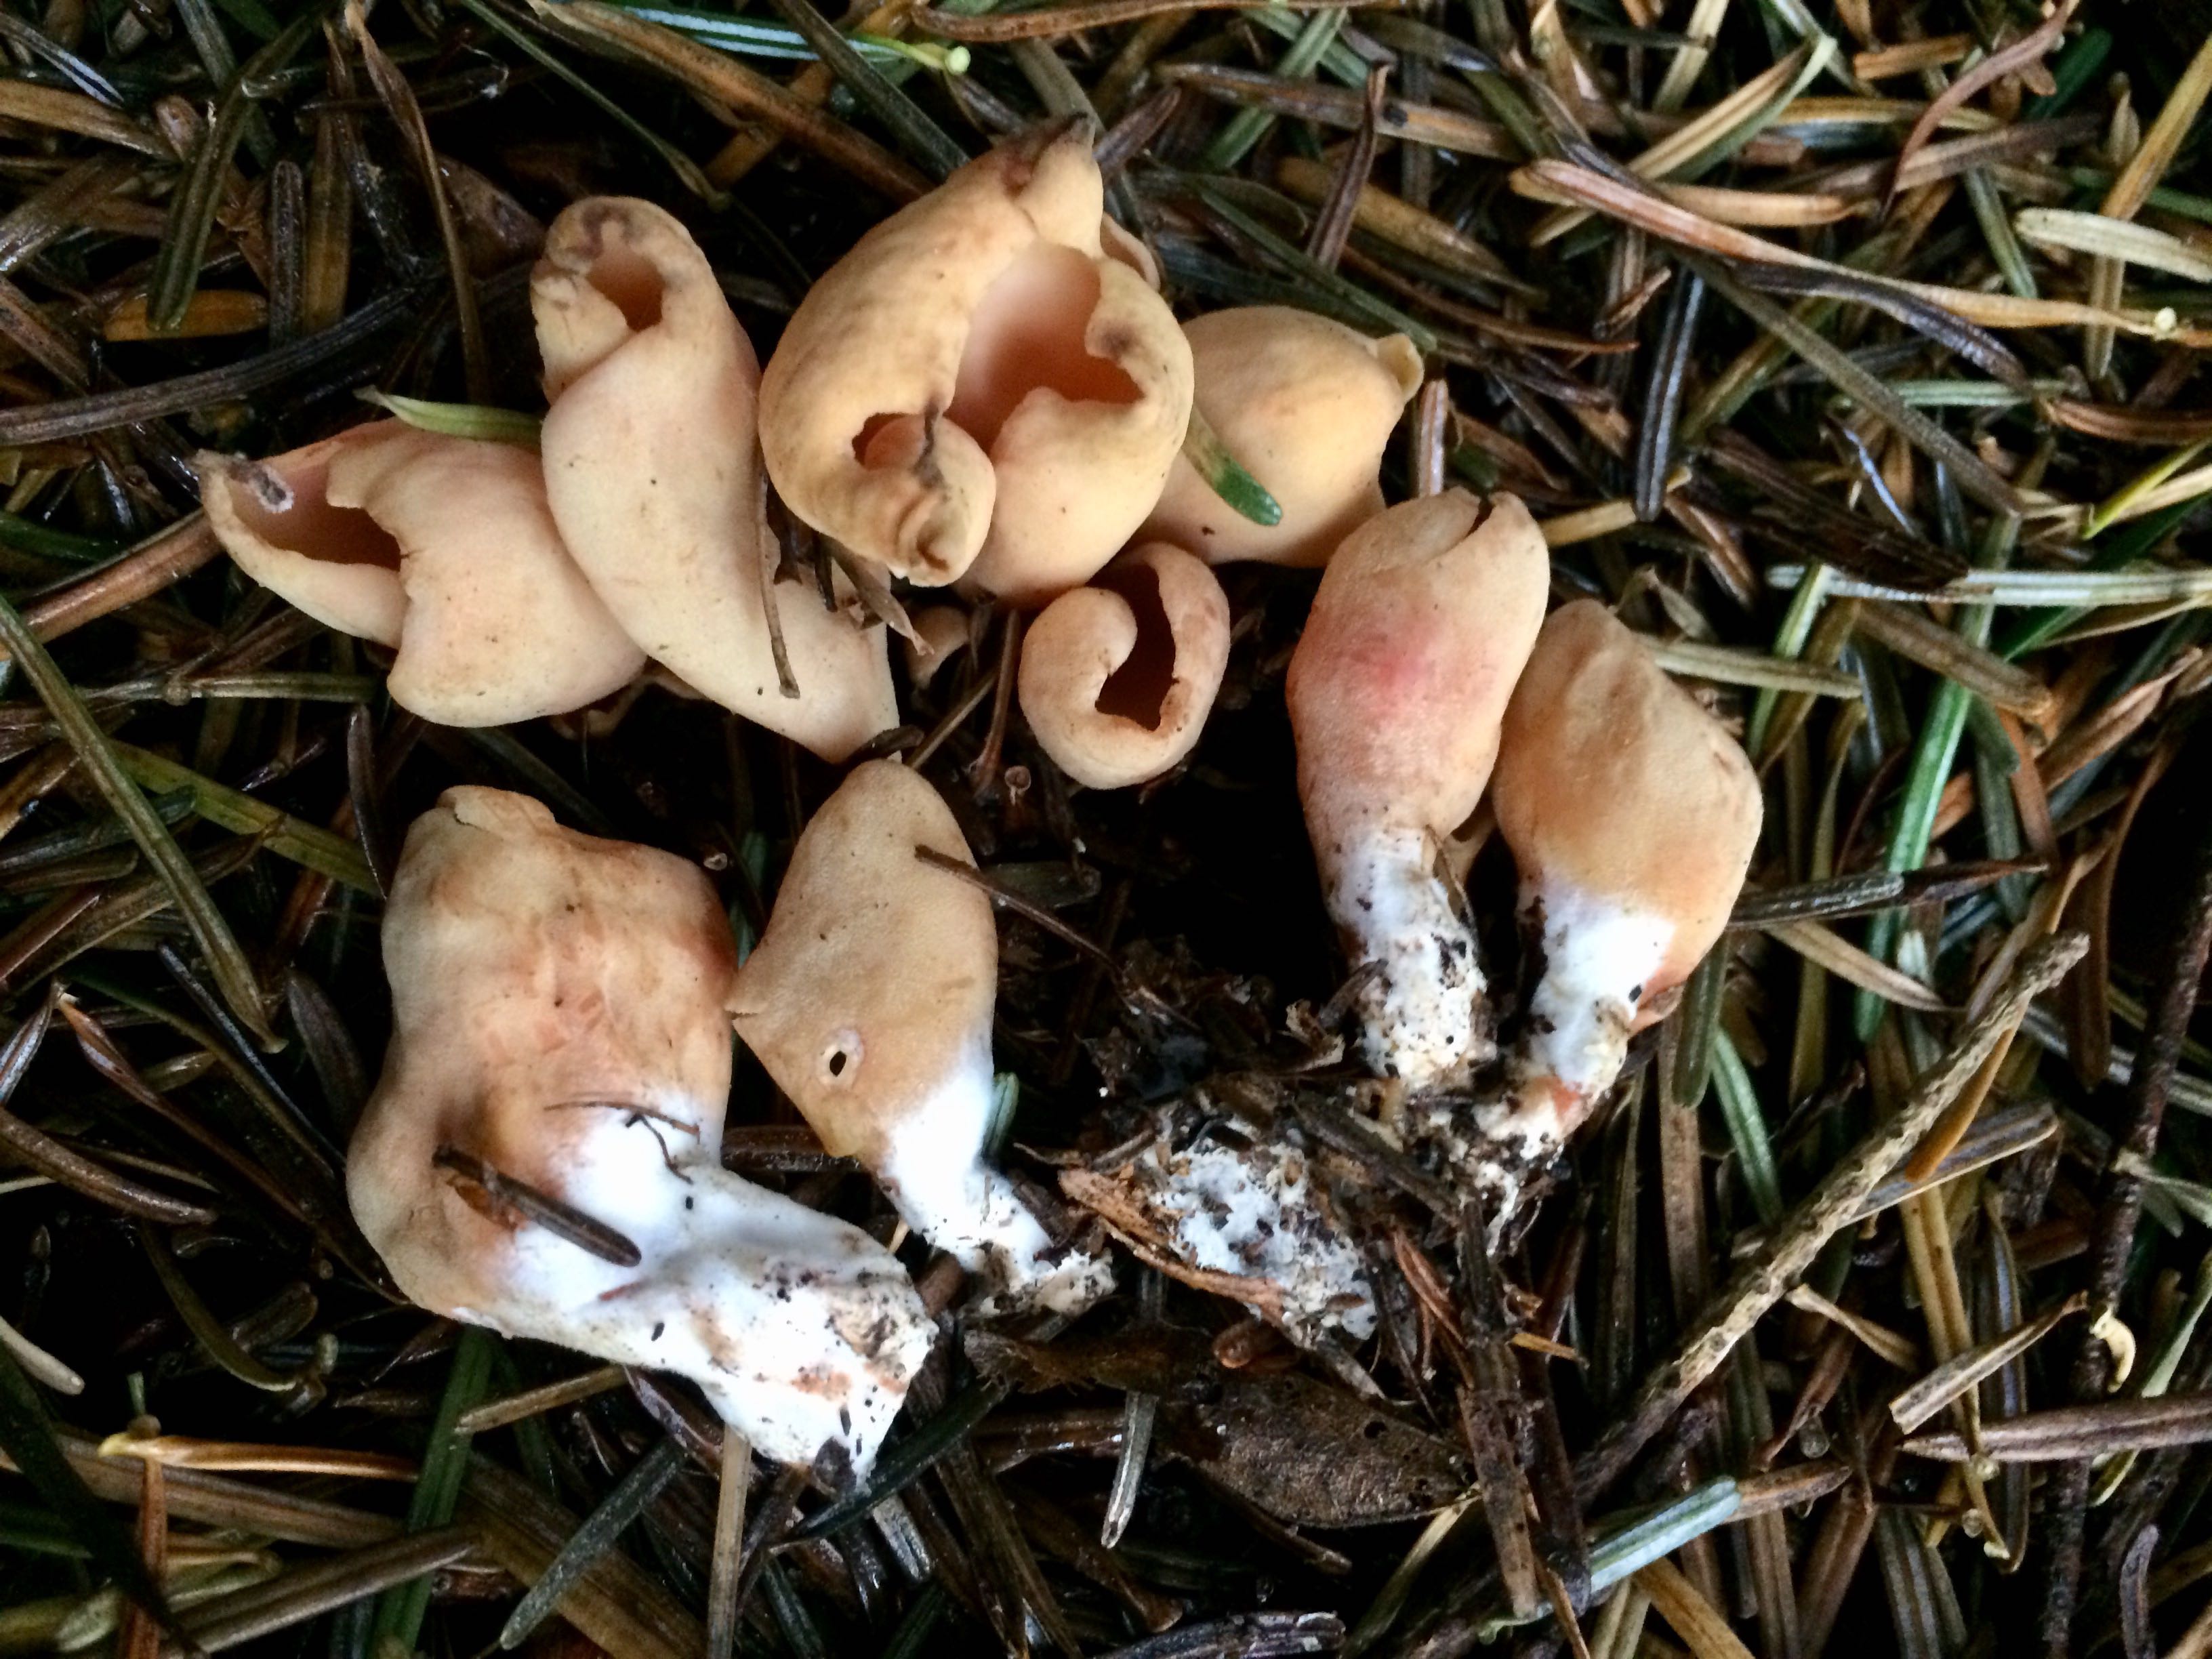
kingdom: Fungi
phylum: Ascomycota
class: Pezizomycetes
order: Pezizales
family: Otideaceae
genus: Otidea
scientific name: Otidea onotica
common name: æsel-ørebæger
